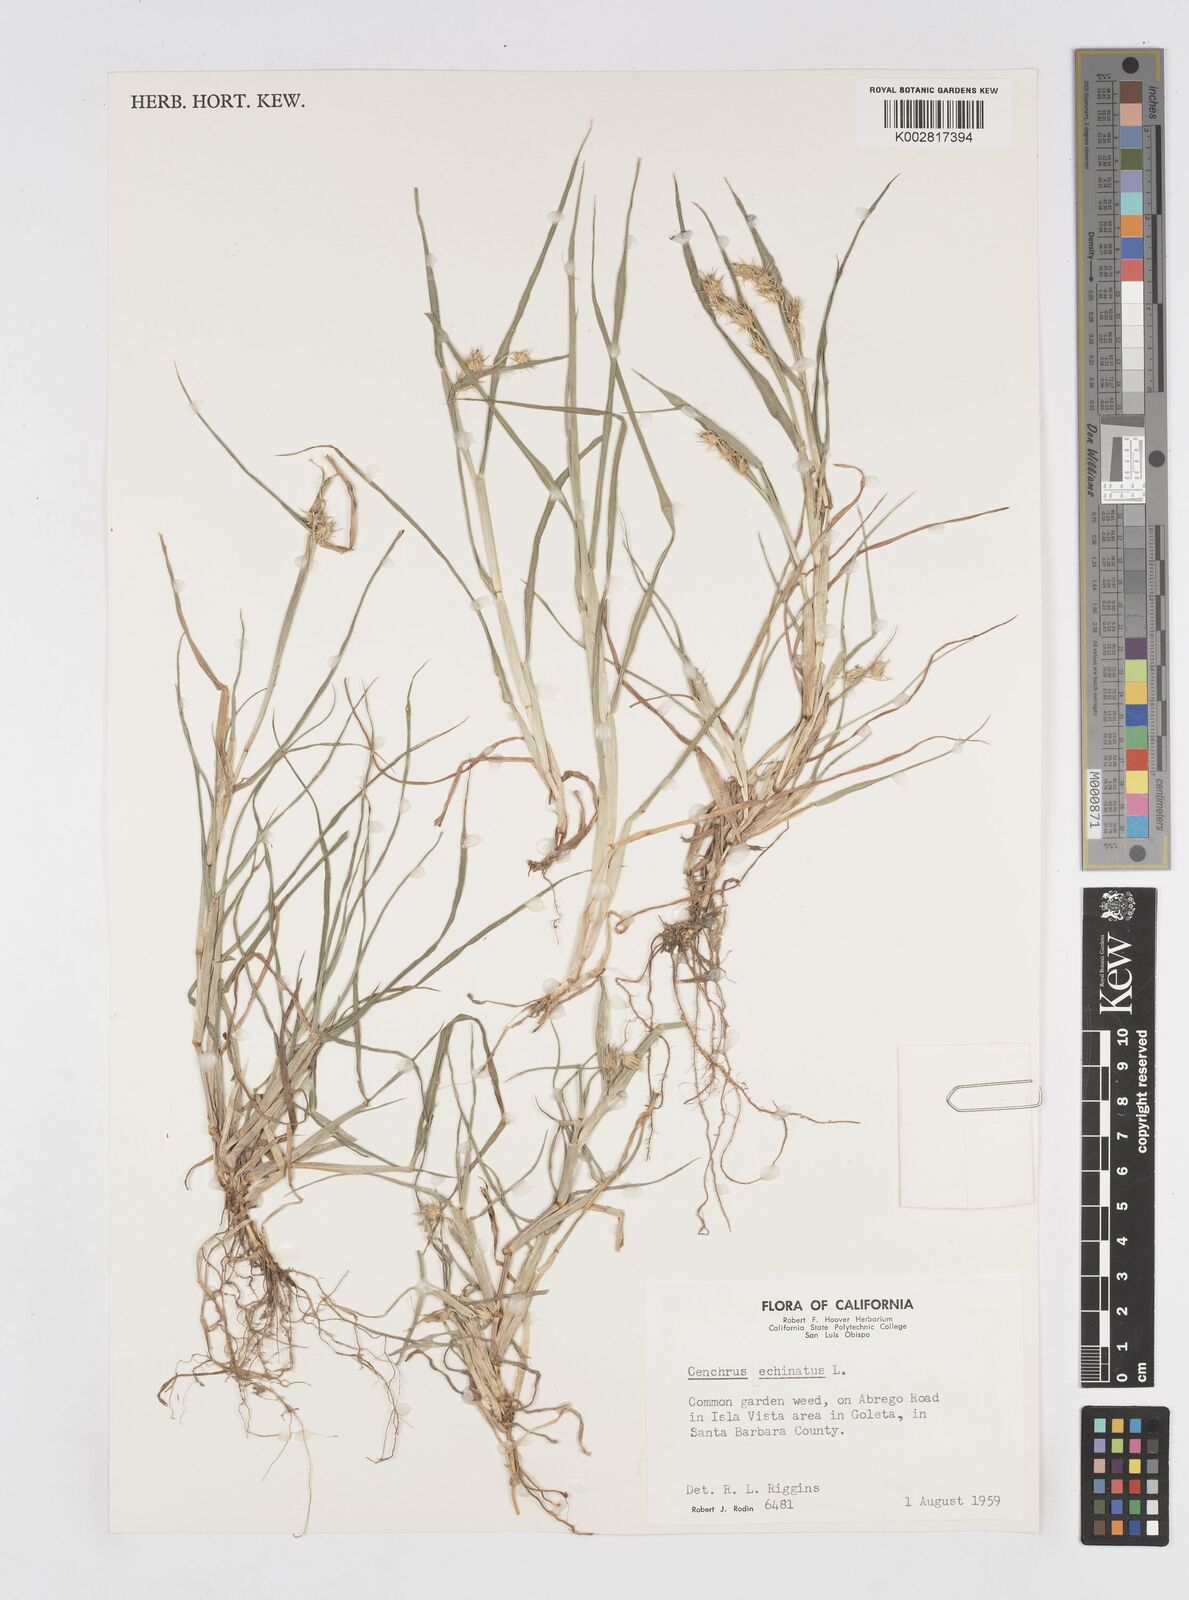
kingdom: Plantae
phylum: Tracheophyta
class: Liliopsida
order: Poales
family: Poaceae
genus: Cenchrus
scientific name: Cenchrus longispinus
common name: Mat sandbur
